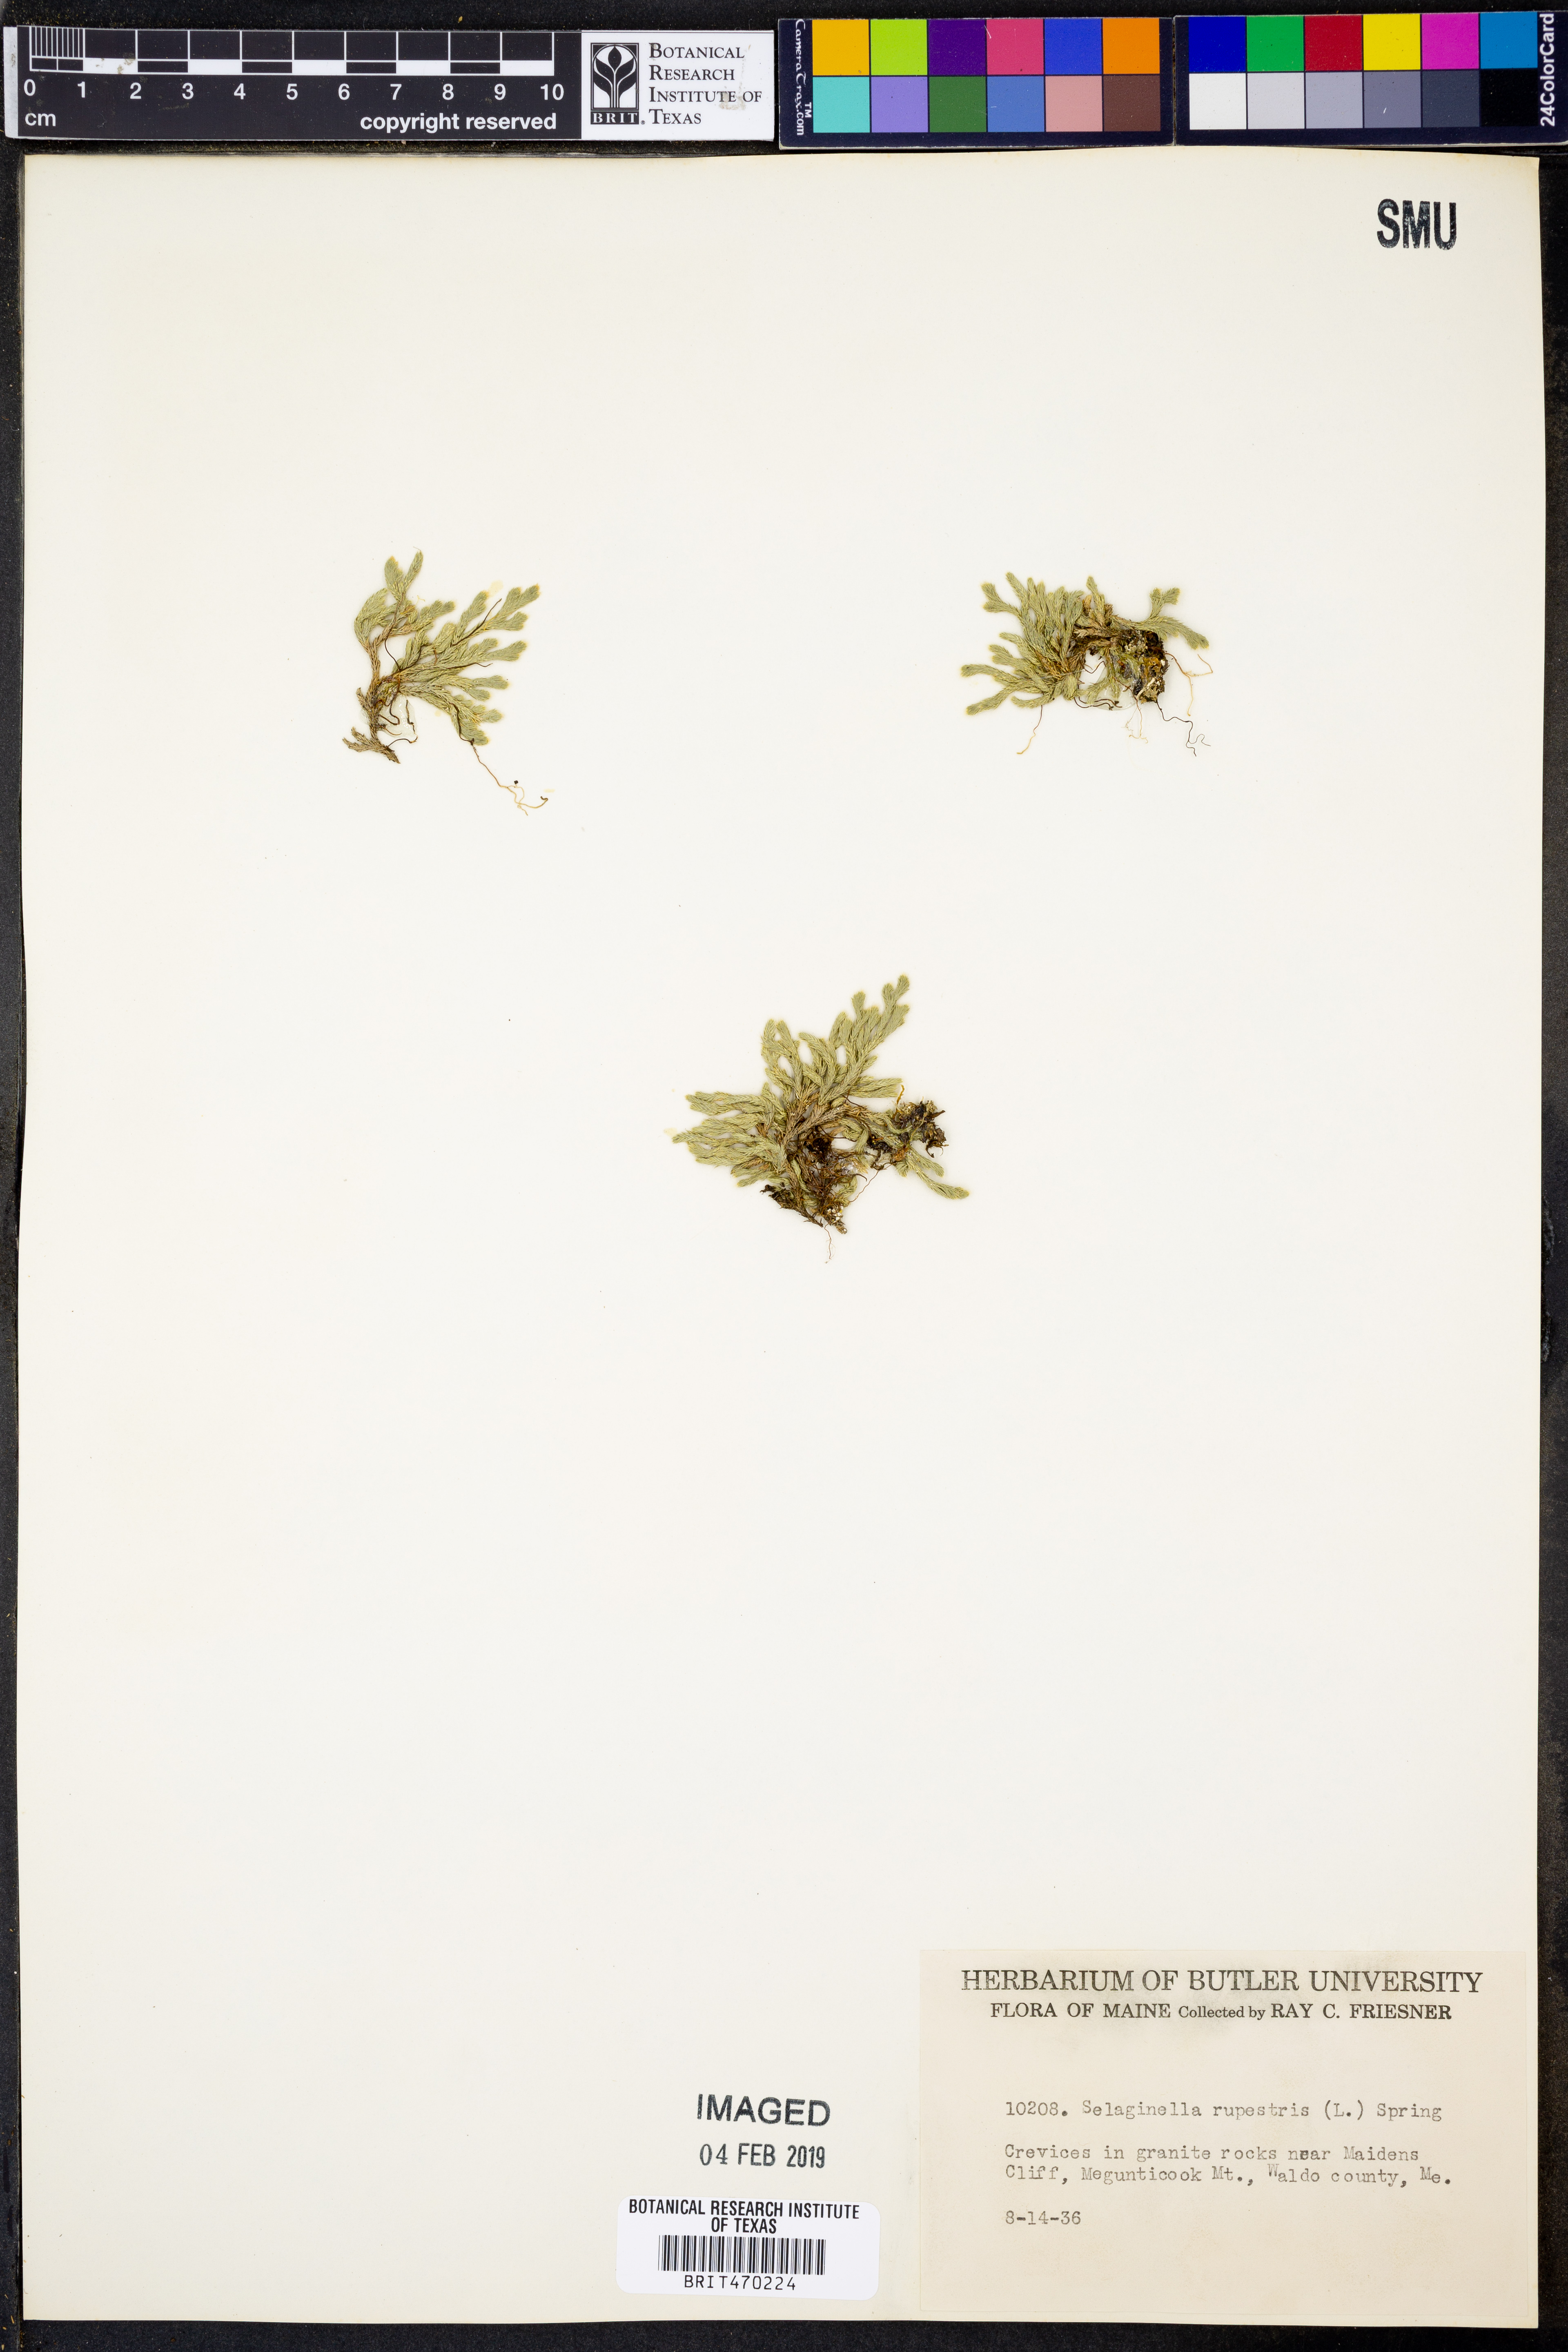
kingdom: Plantae
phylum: Tracheophyta
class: Lycopodiopsida
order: Selaginellales
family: Selaginellaceae
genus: Selaginella
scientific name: Selaginella rupestris
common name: Dwarf spikemoss
